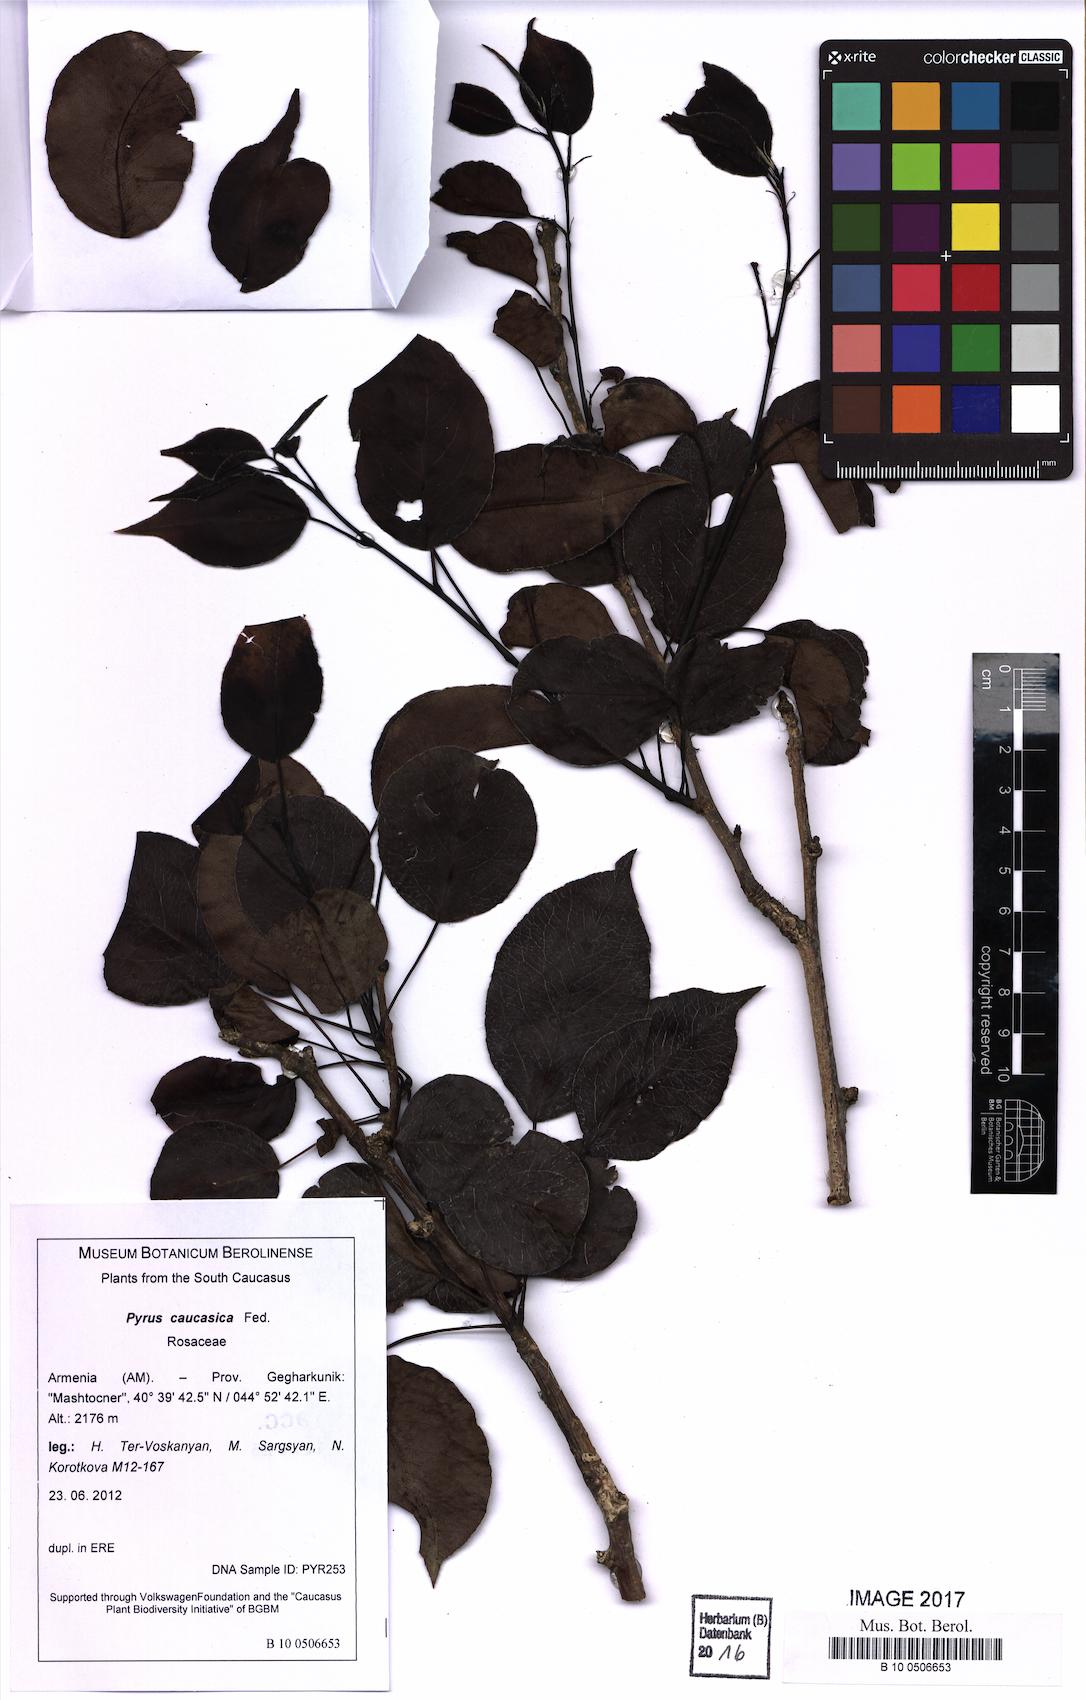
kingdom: Plantae
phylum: Tracheophyta
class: Magnoliopsida
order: Rosales
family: Rosaceae
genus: Pyrus
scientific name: Pyrus communis
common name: Pear
